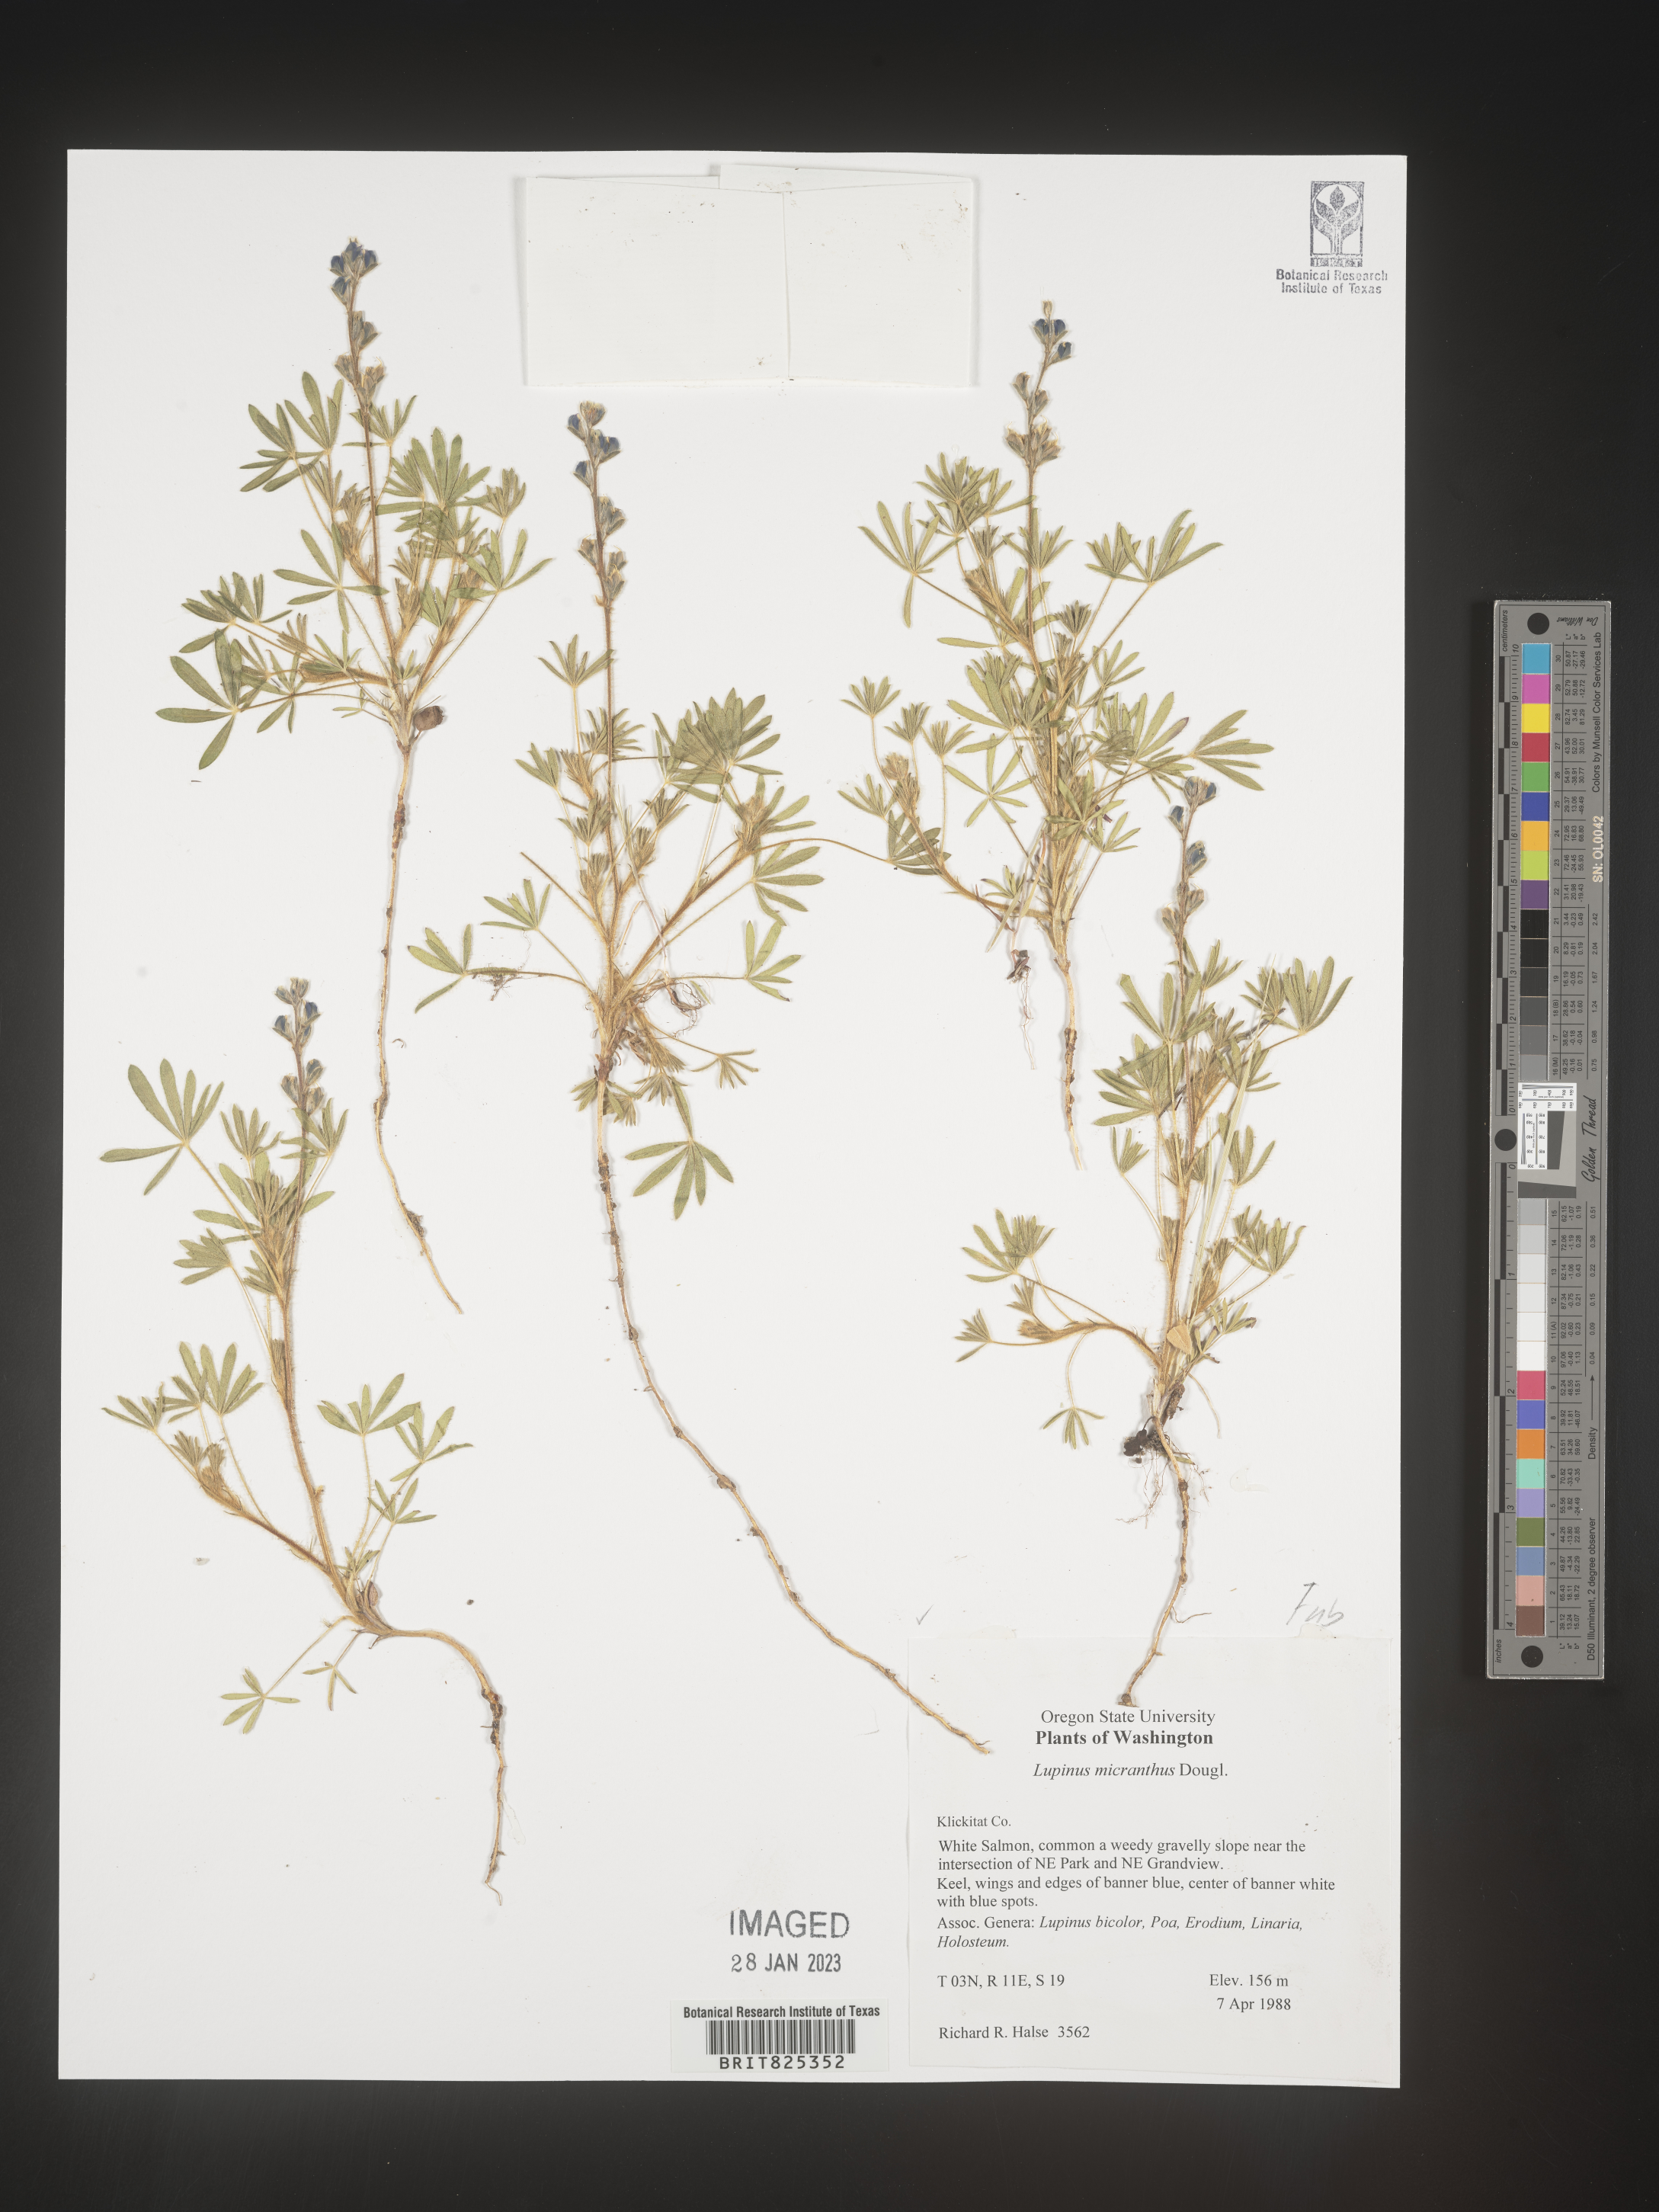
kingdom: Plantae
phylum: Tracheophyta
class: Magnoliopsida
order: Fabales
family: Fabaceae
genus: Lupinus
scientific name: Lupinus
